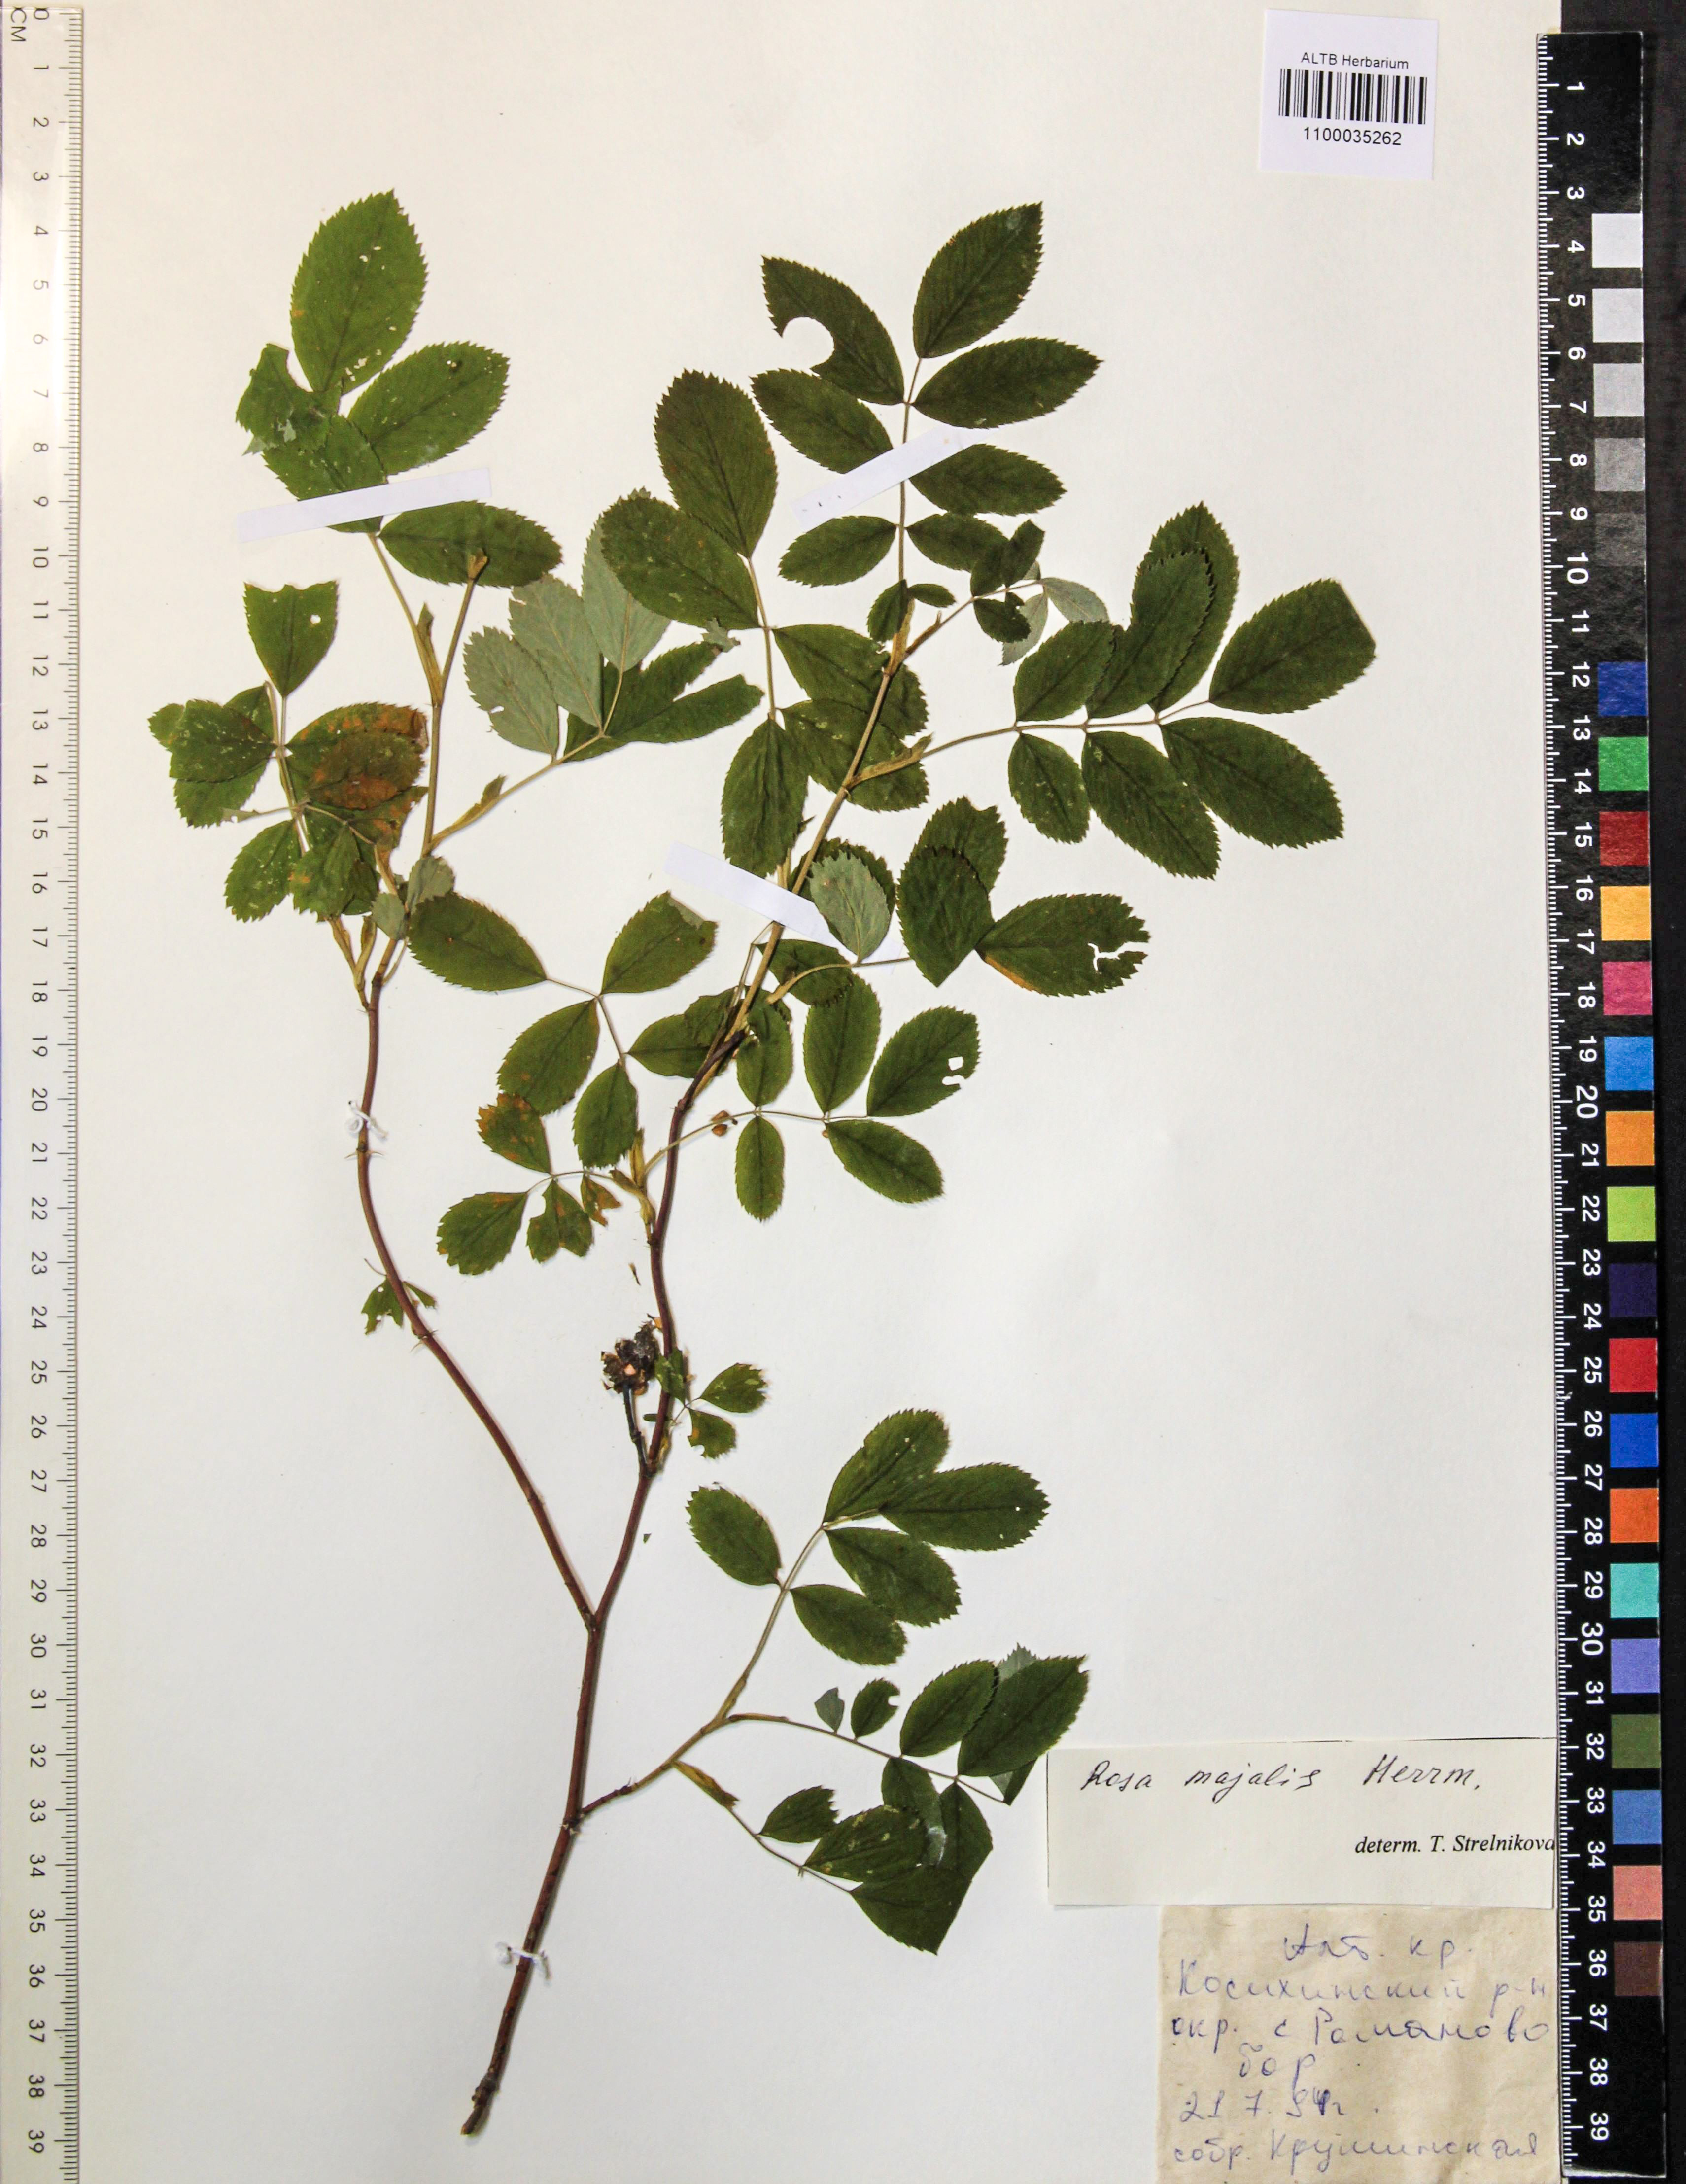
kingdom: Plantae
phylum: Tracheophyta
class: Magnoliopsida
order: Rosales
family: Rosaceae
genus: Rosa
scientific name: Rosa majalis
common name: Cinnamon rose
